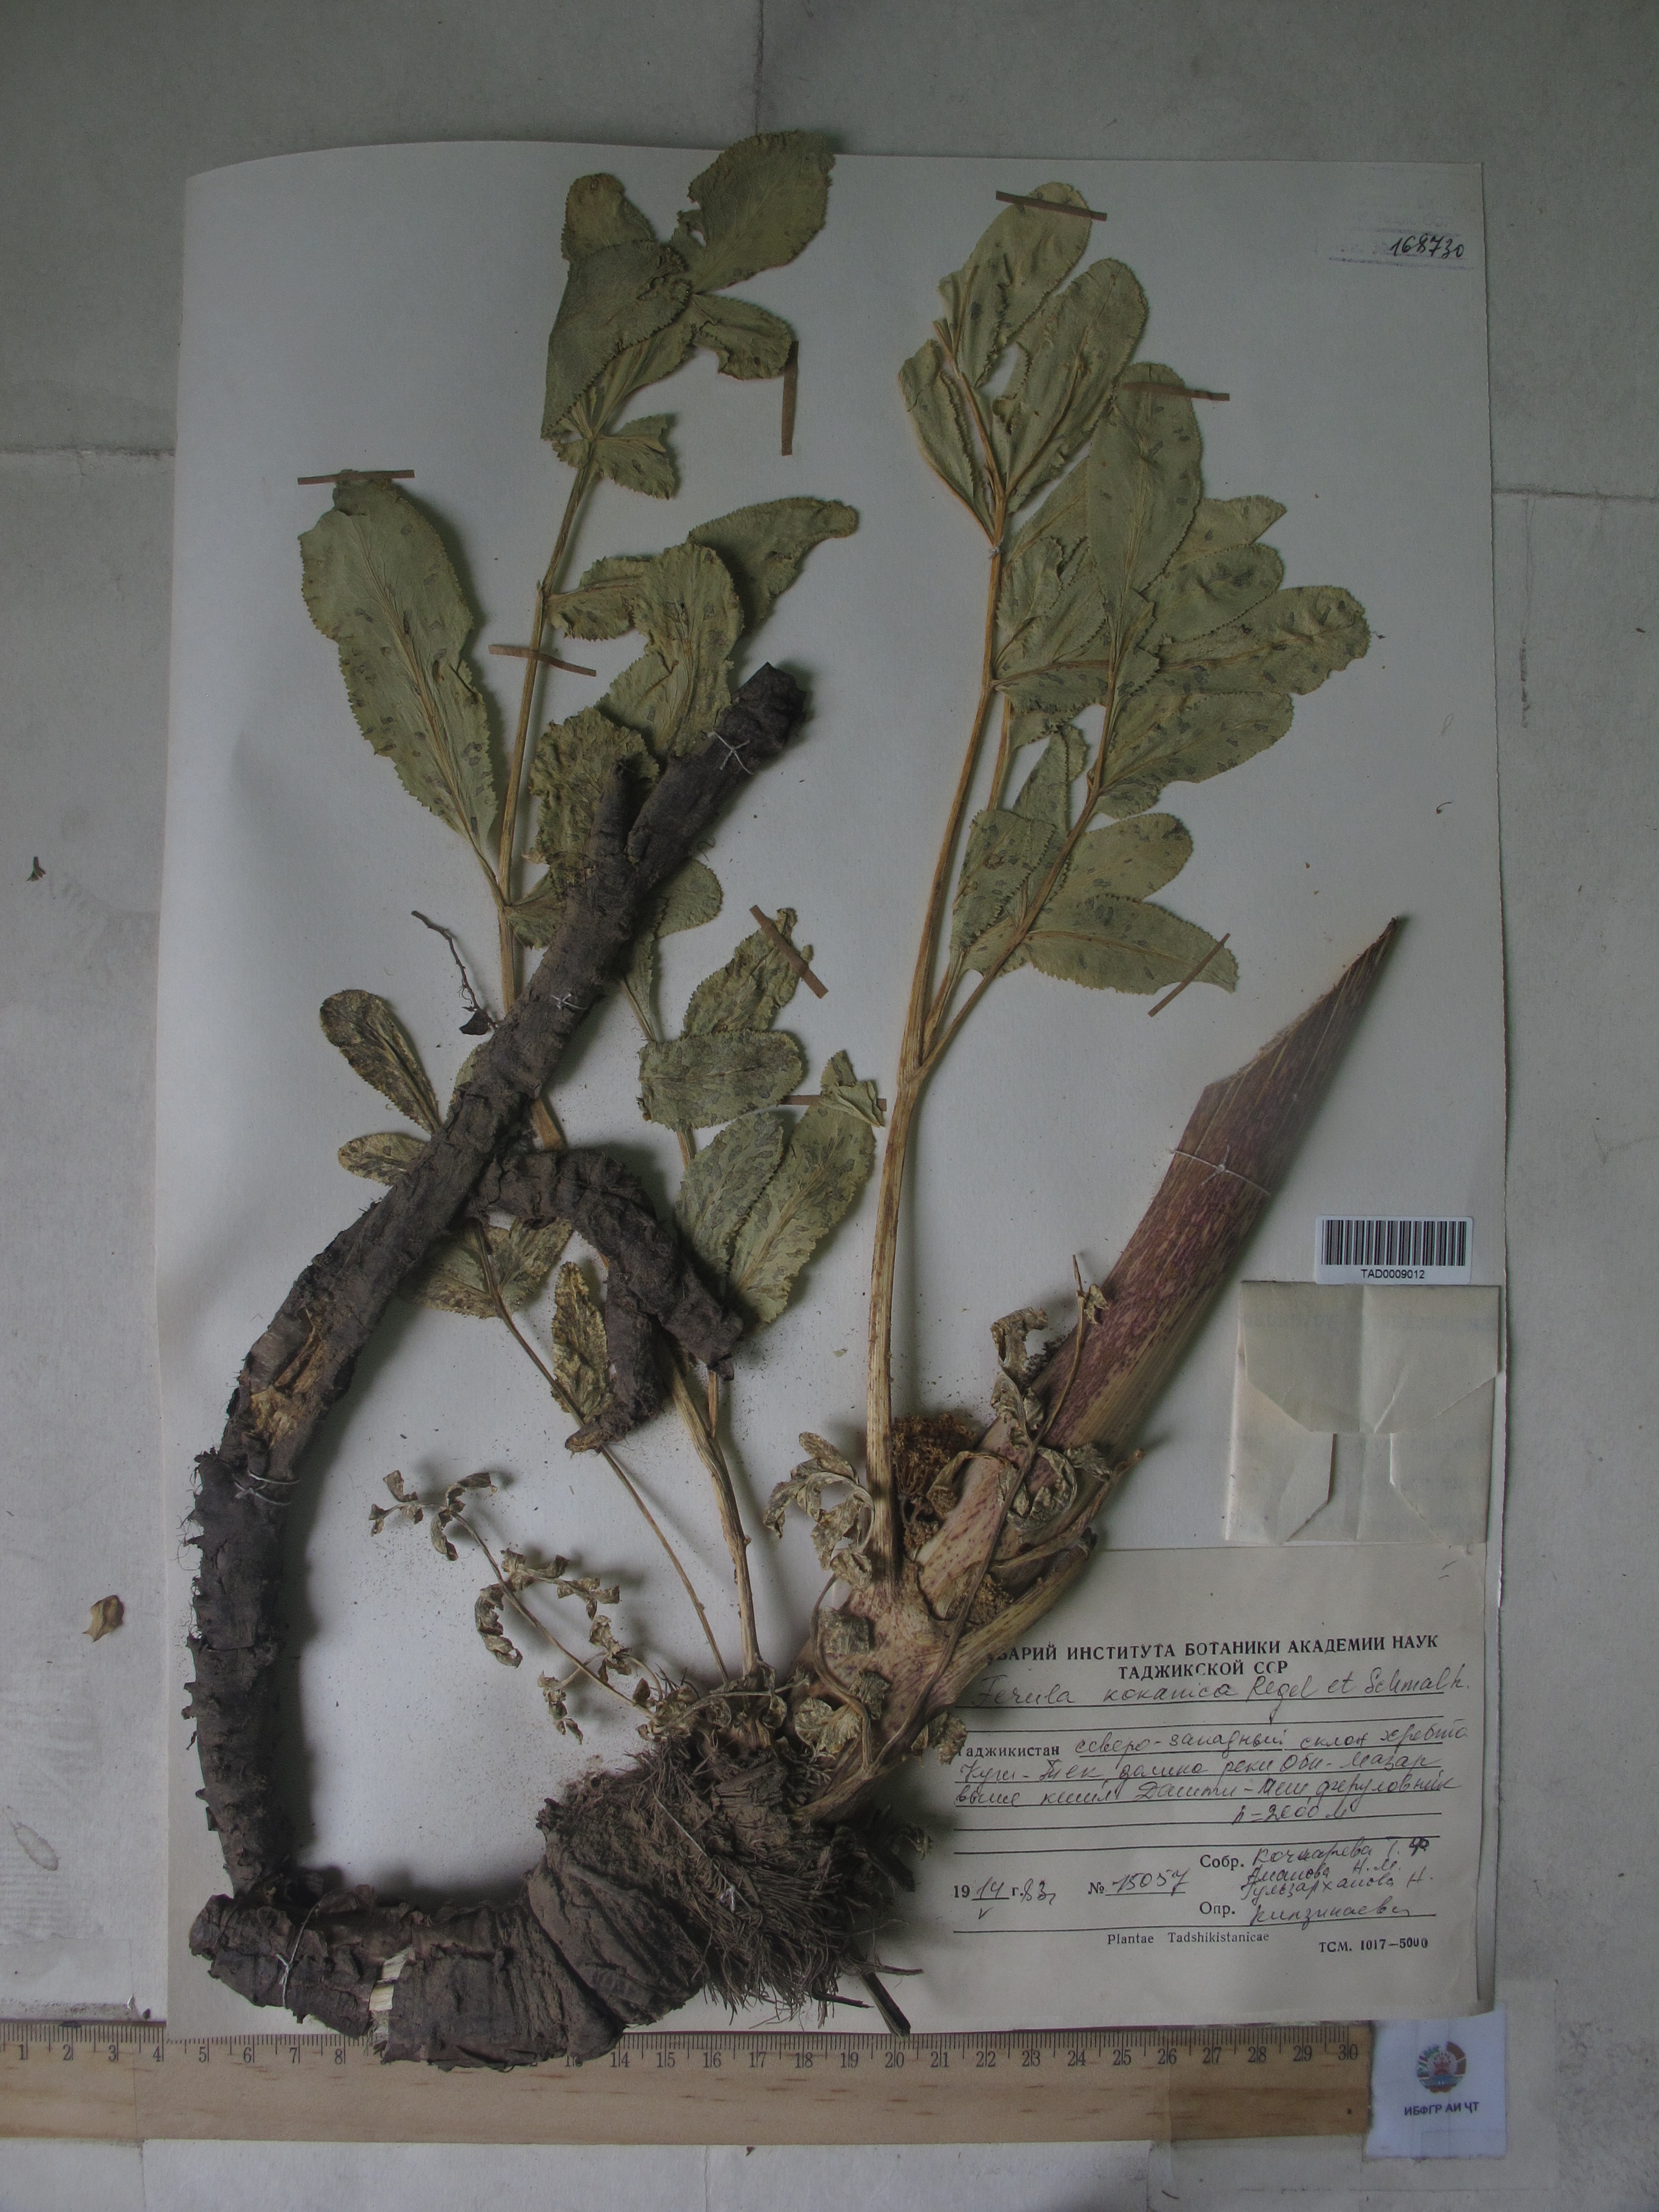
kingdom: Plantae
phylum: Tracheophyta
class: Magnoliopsida
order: Apiales
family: Apiaceae
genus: Ferula
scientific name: Ferula kokanica
